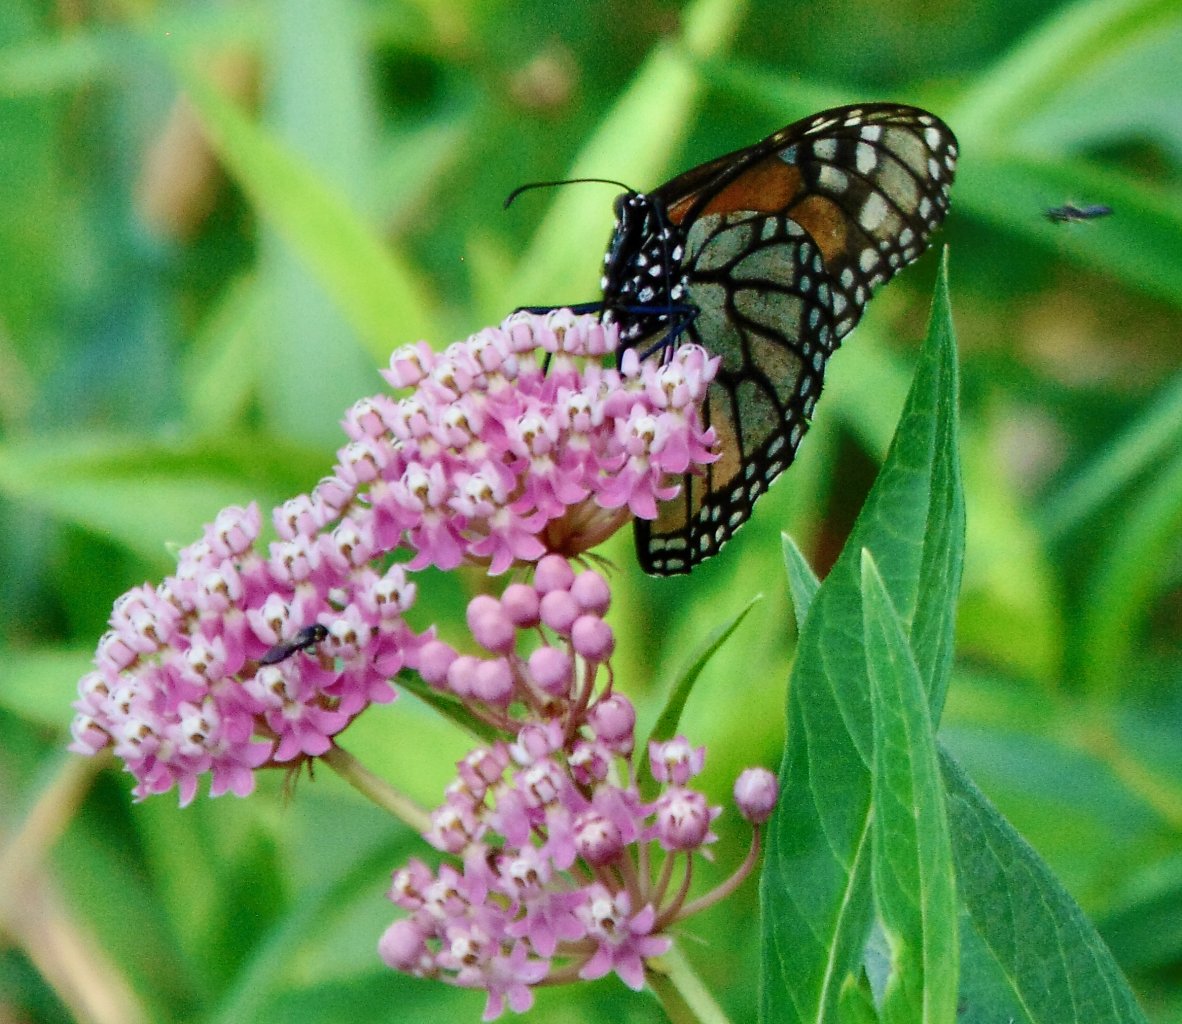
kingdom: Animalia
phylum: Arthropoda
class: Insecta
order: Lepidoptera
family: Nymphalidae
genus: Danaus
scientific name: Danaus plexippus
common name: Monarch
